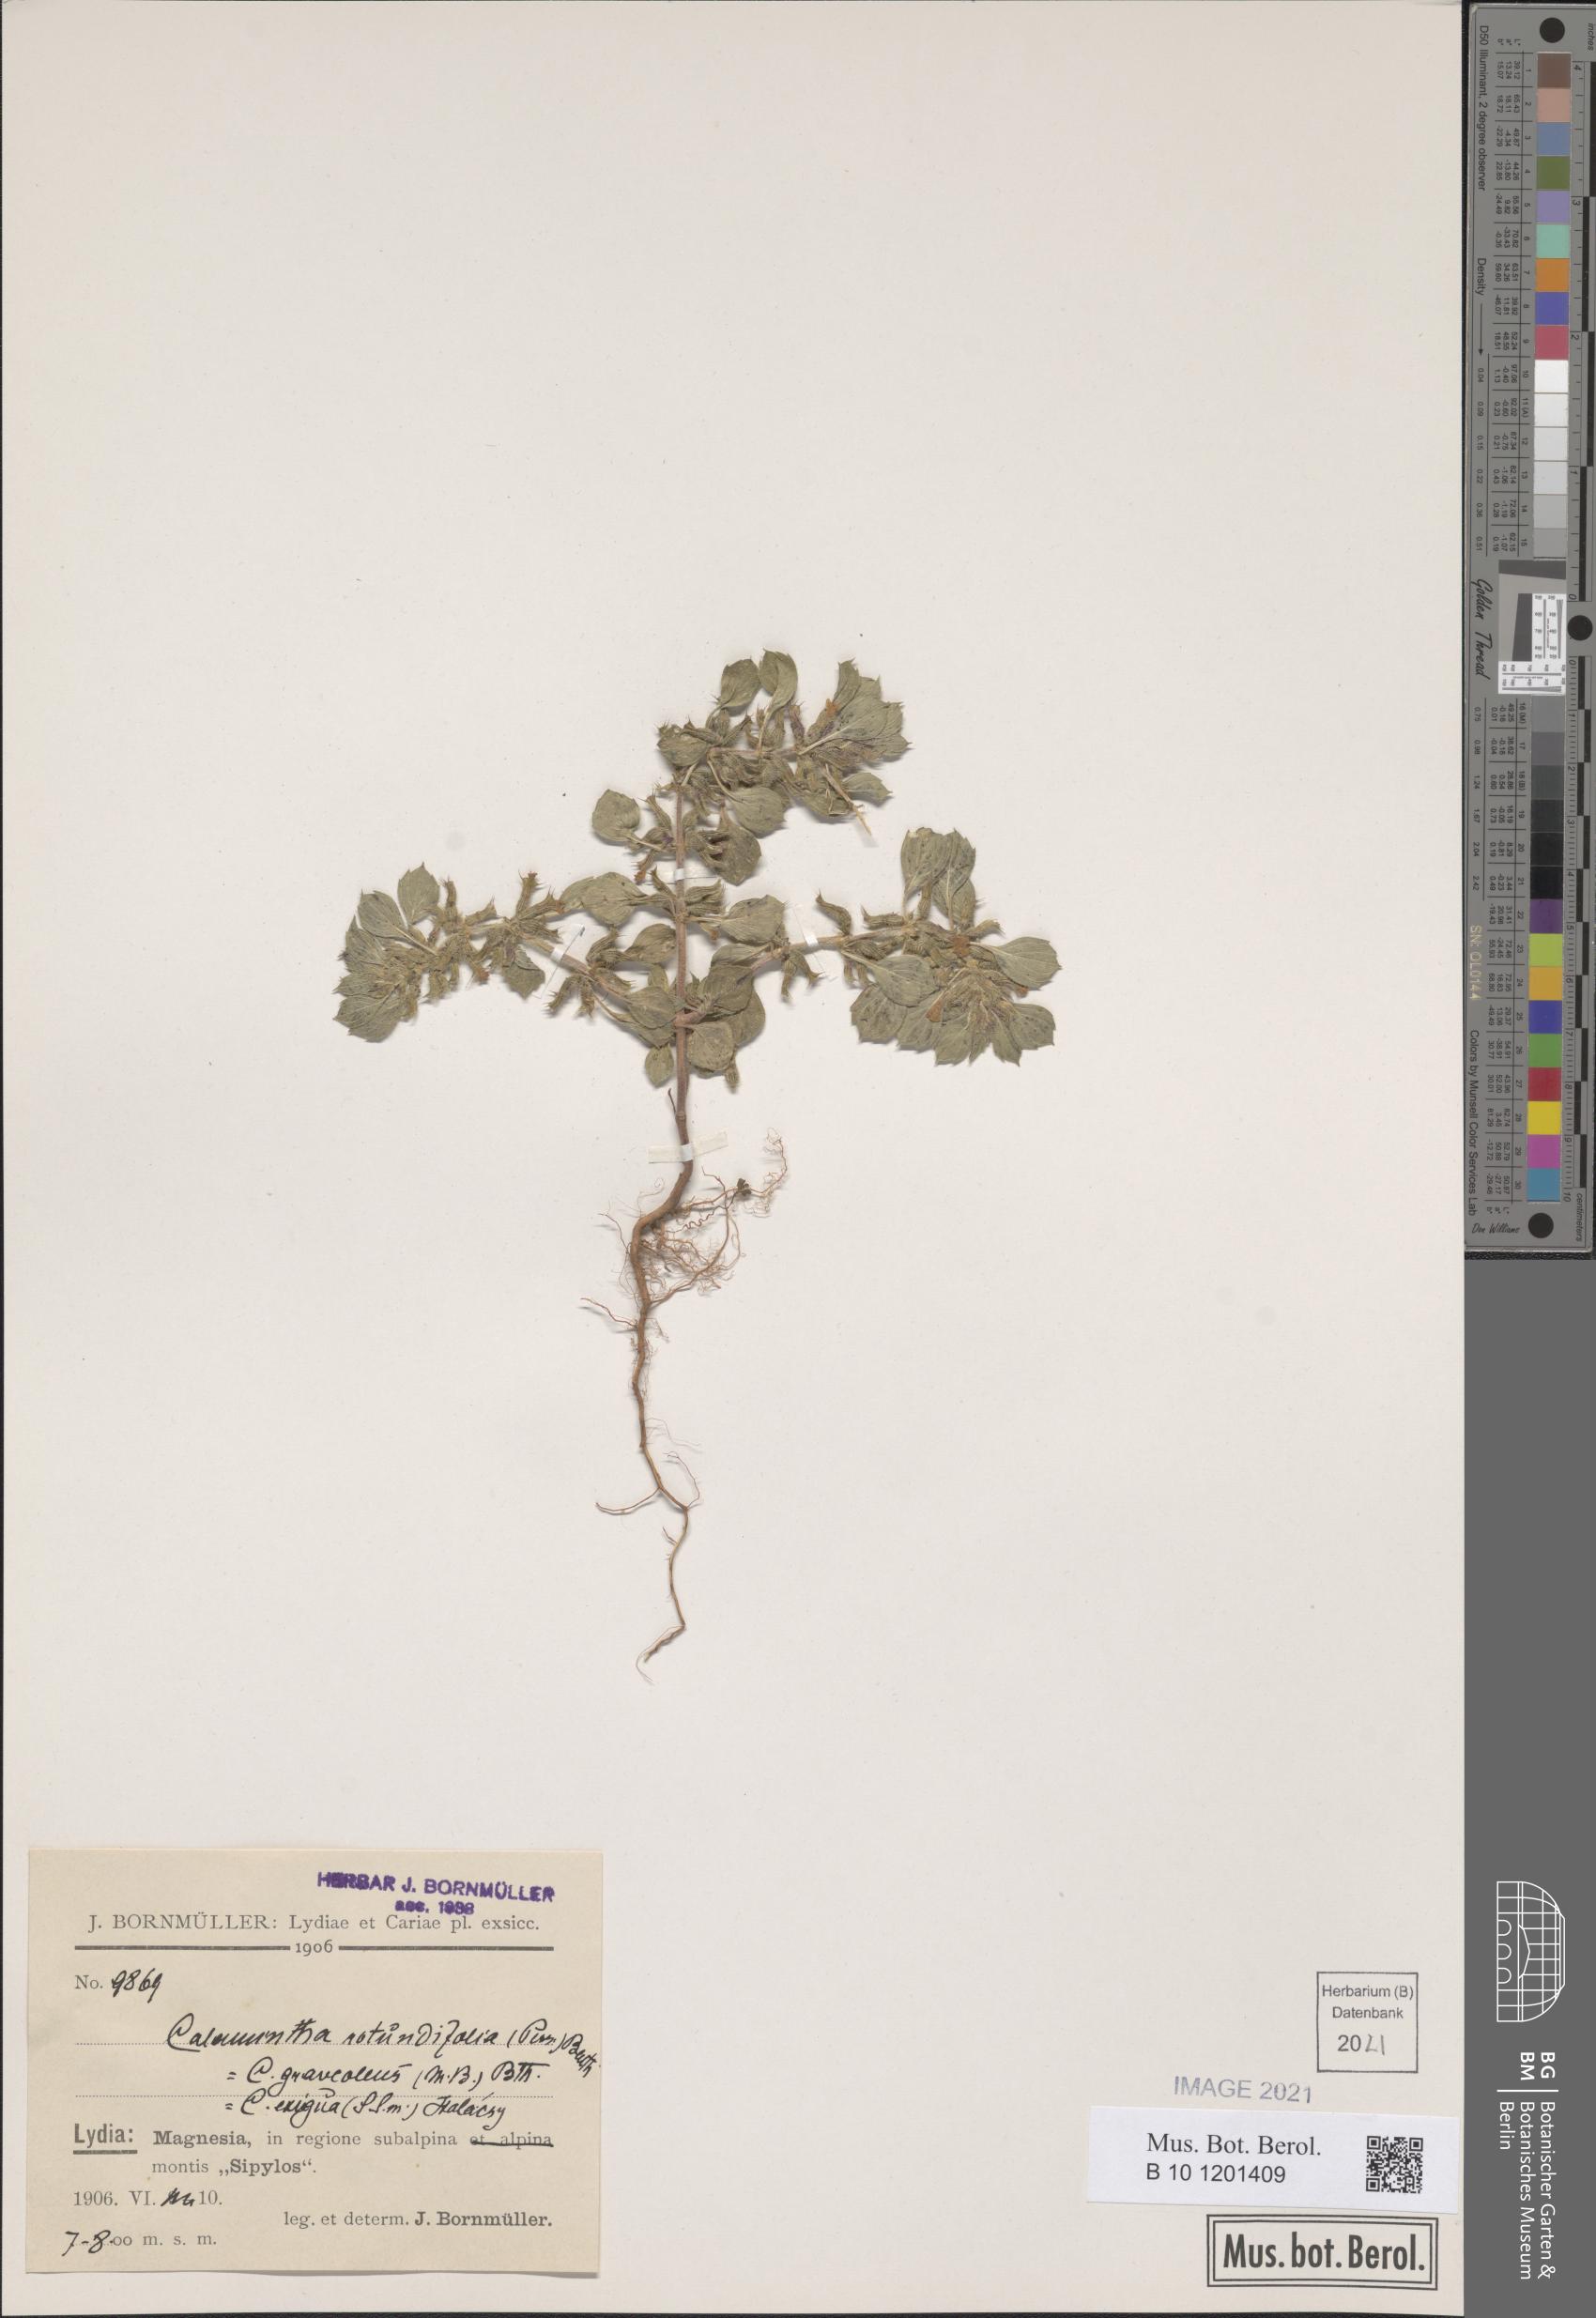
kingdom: Plantae
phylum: Tracheophyta
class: Magnoliopsida
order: Lamiales
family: Lamiaceae
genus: Clinopodium
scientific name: Clinopodium alpinum
